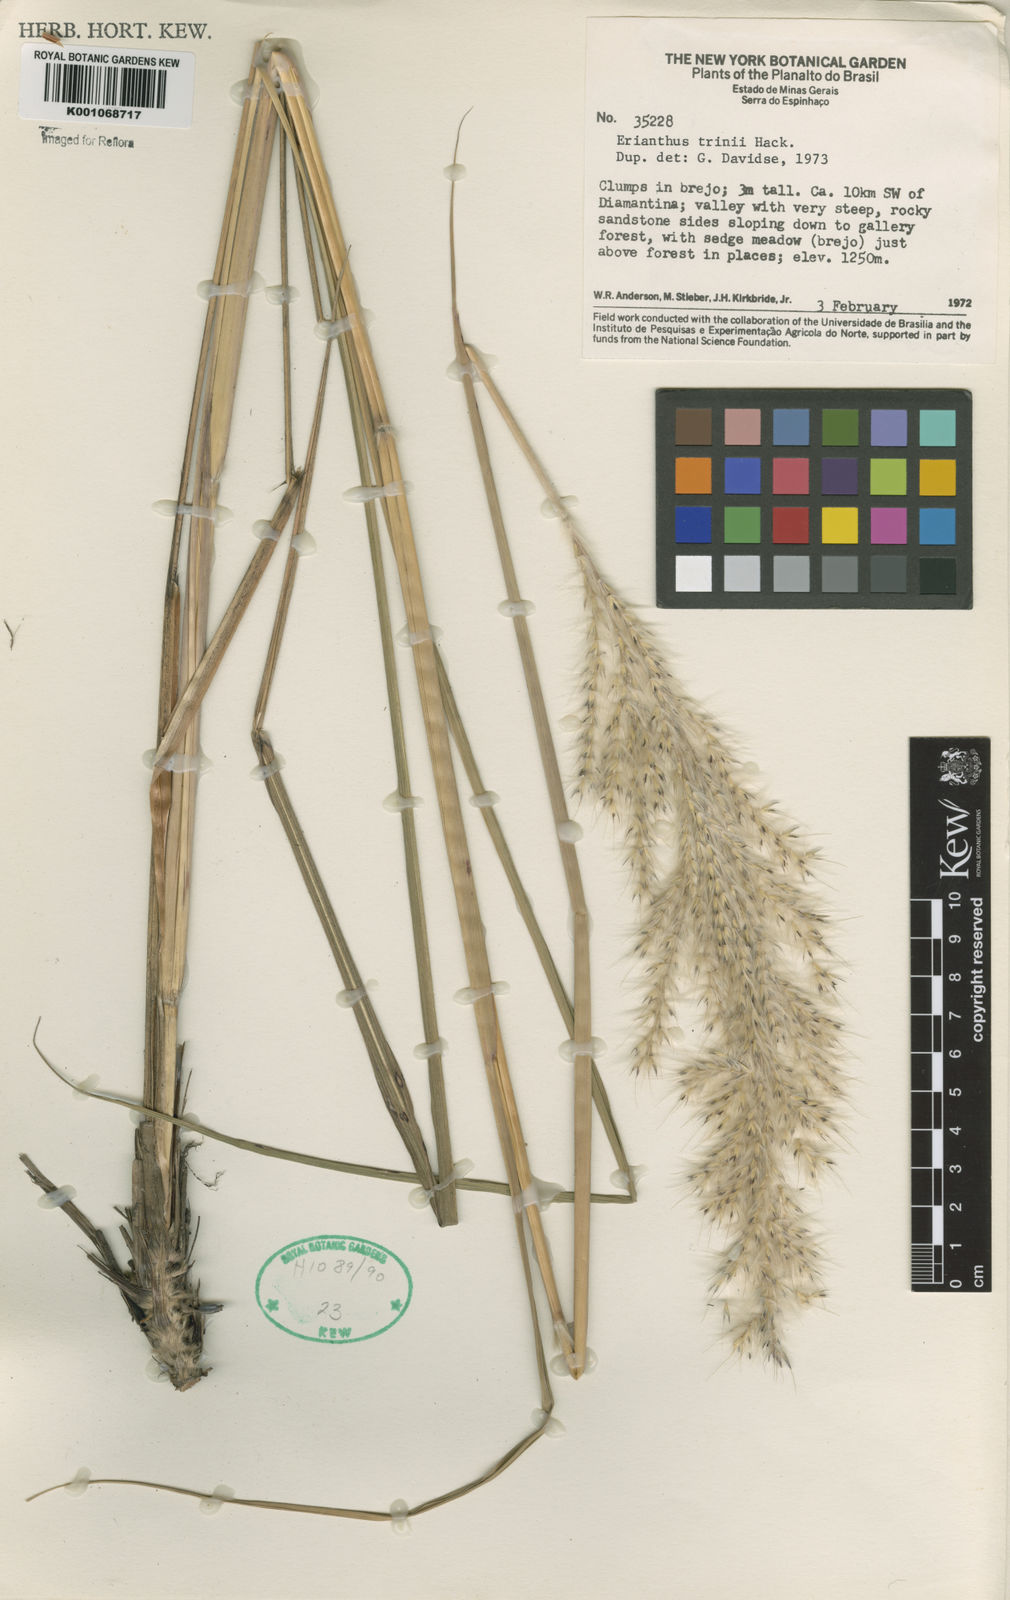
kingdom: Plantae
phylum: Tracheophyta
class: Liliopsida
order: Poales
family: Poaceae
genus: Saccharum
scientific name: Saccharum angustifolium
